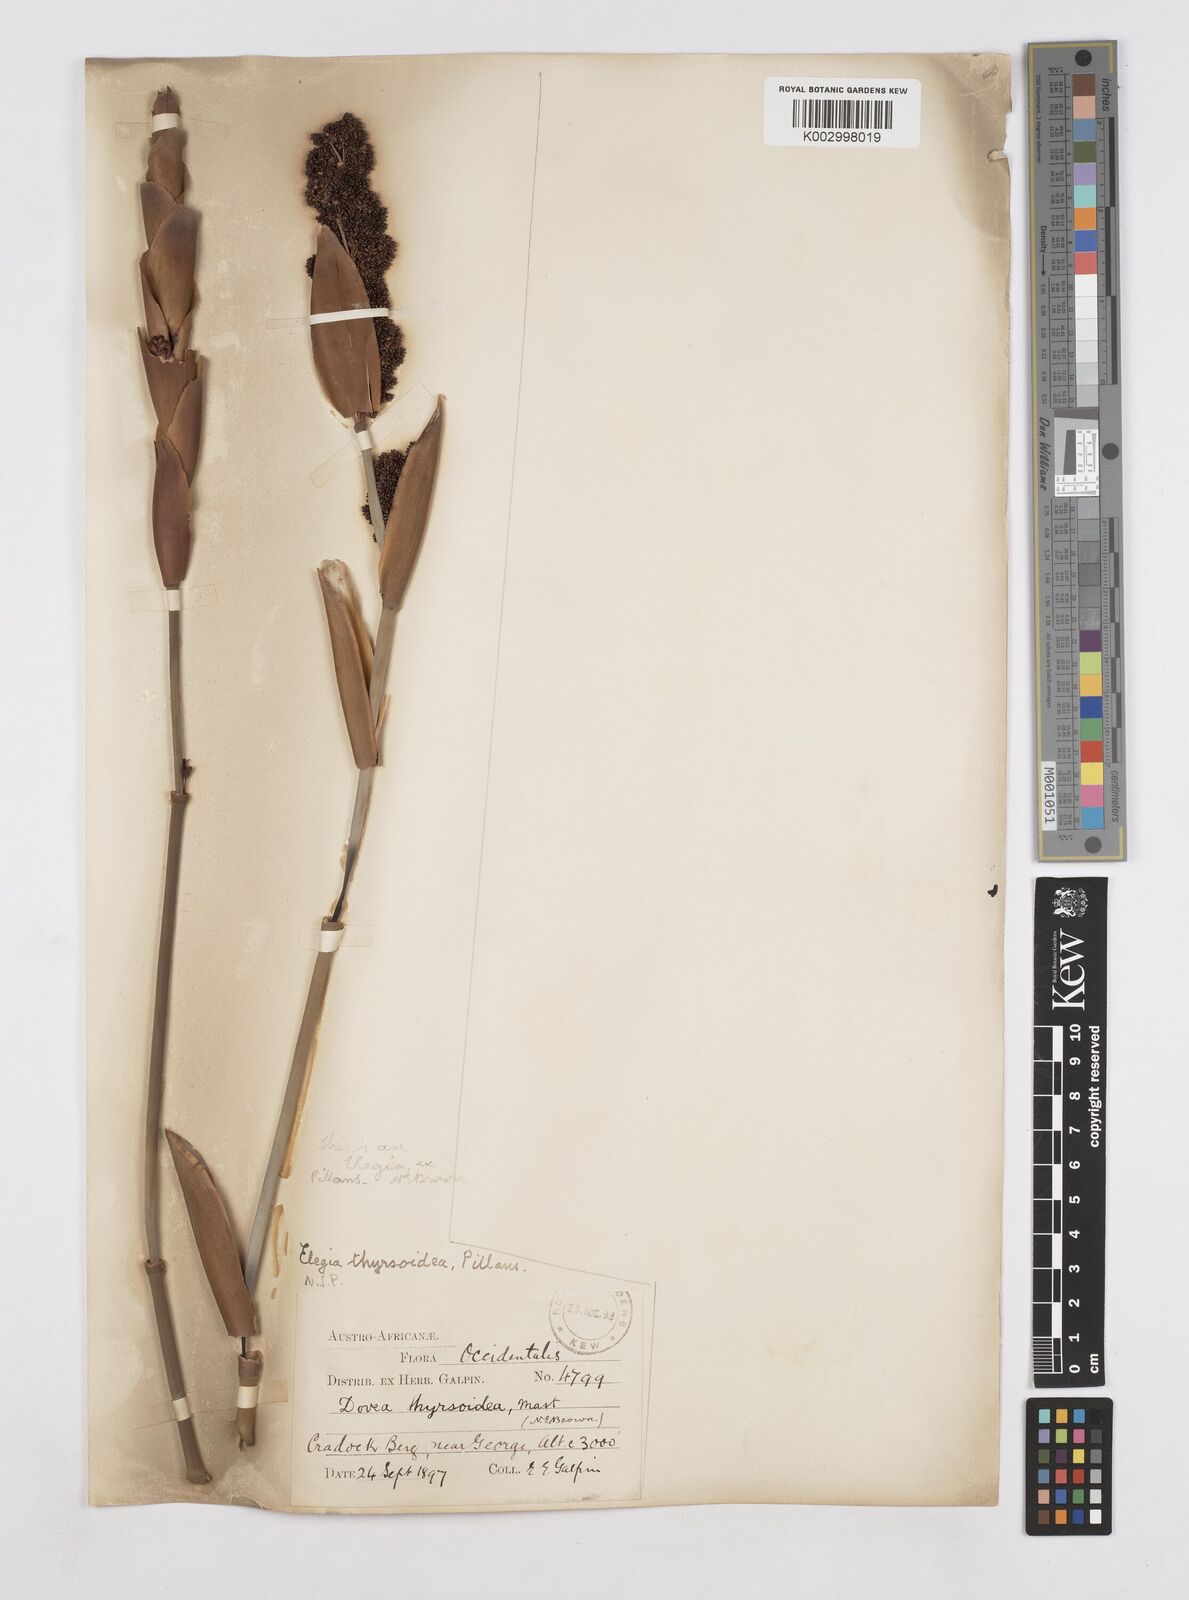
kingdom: Plantae
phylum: Tracheophyta
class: Liliopsida
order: Poales
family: Restionaceae
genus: Elegia
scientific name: Elegia thyrsoidea
